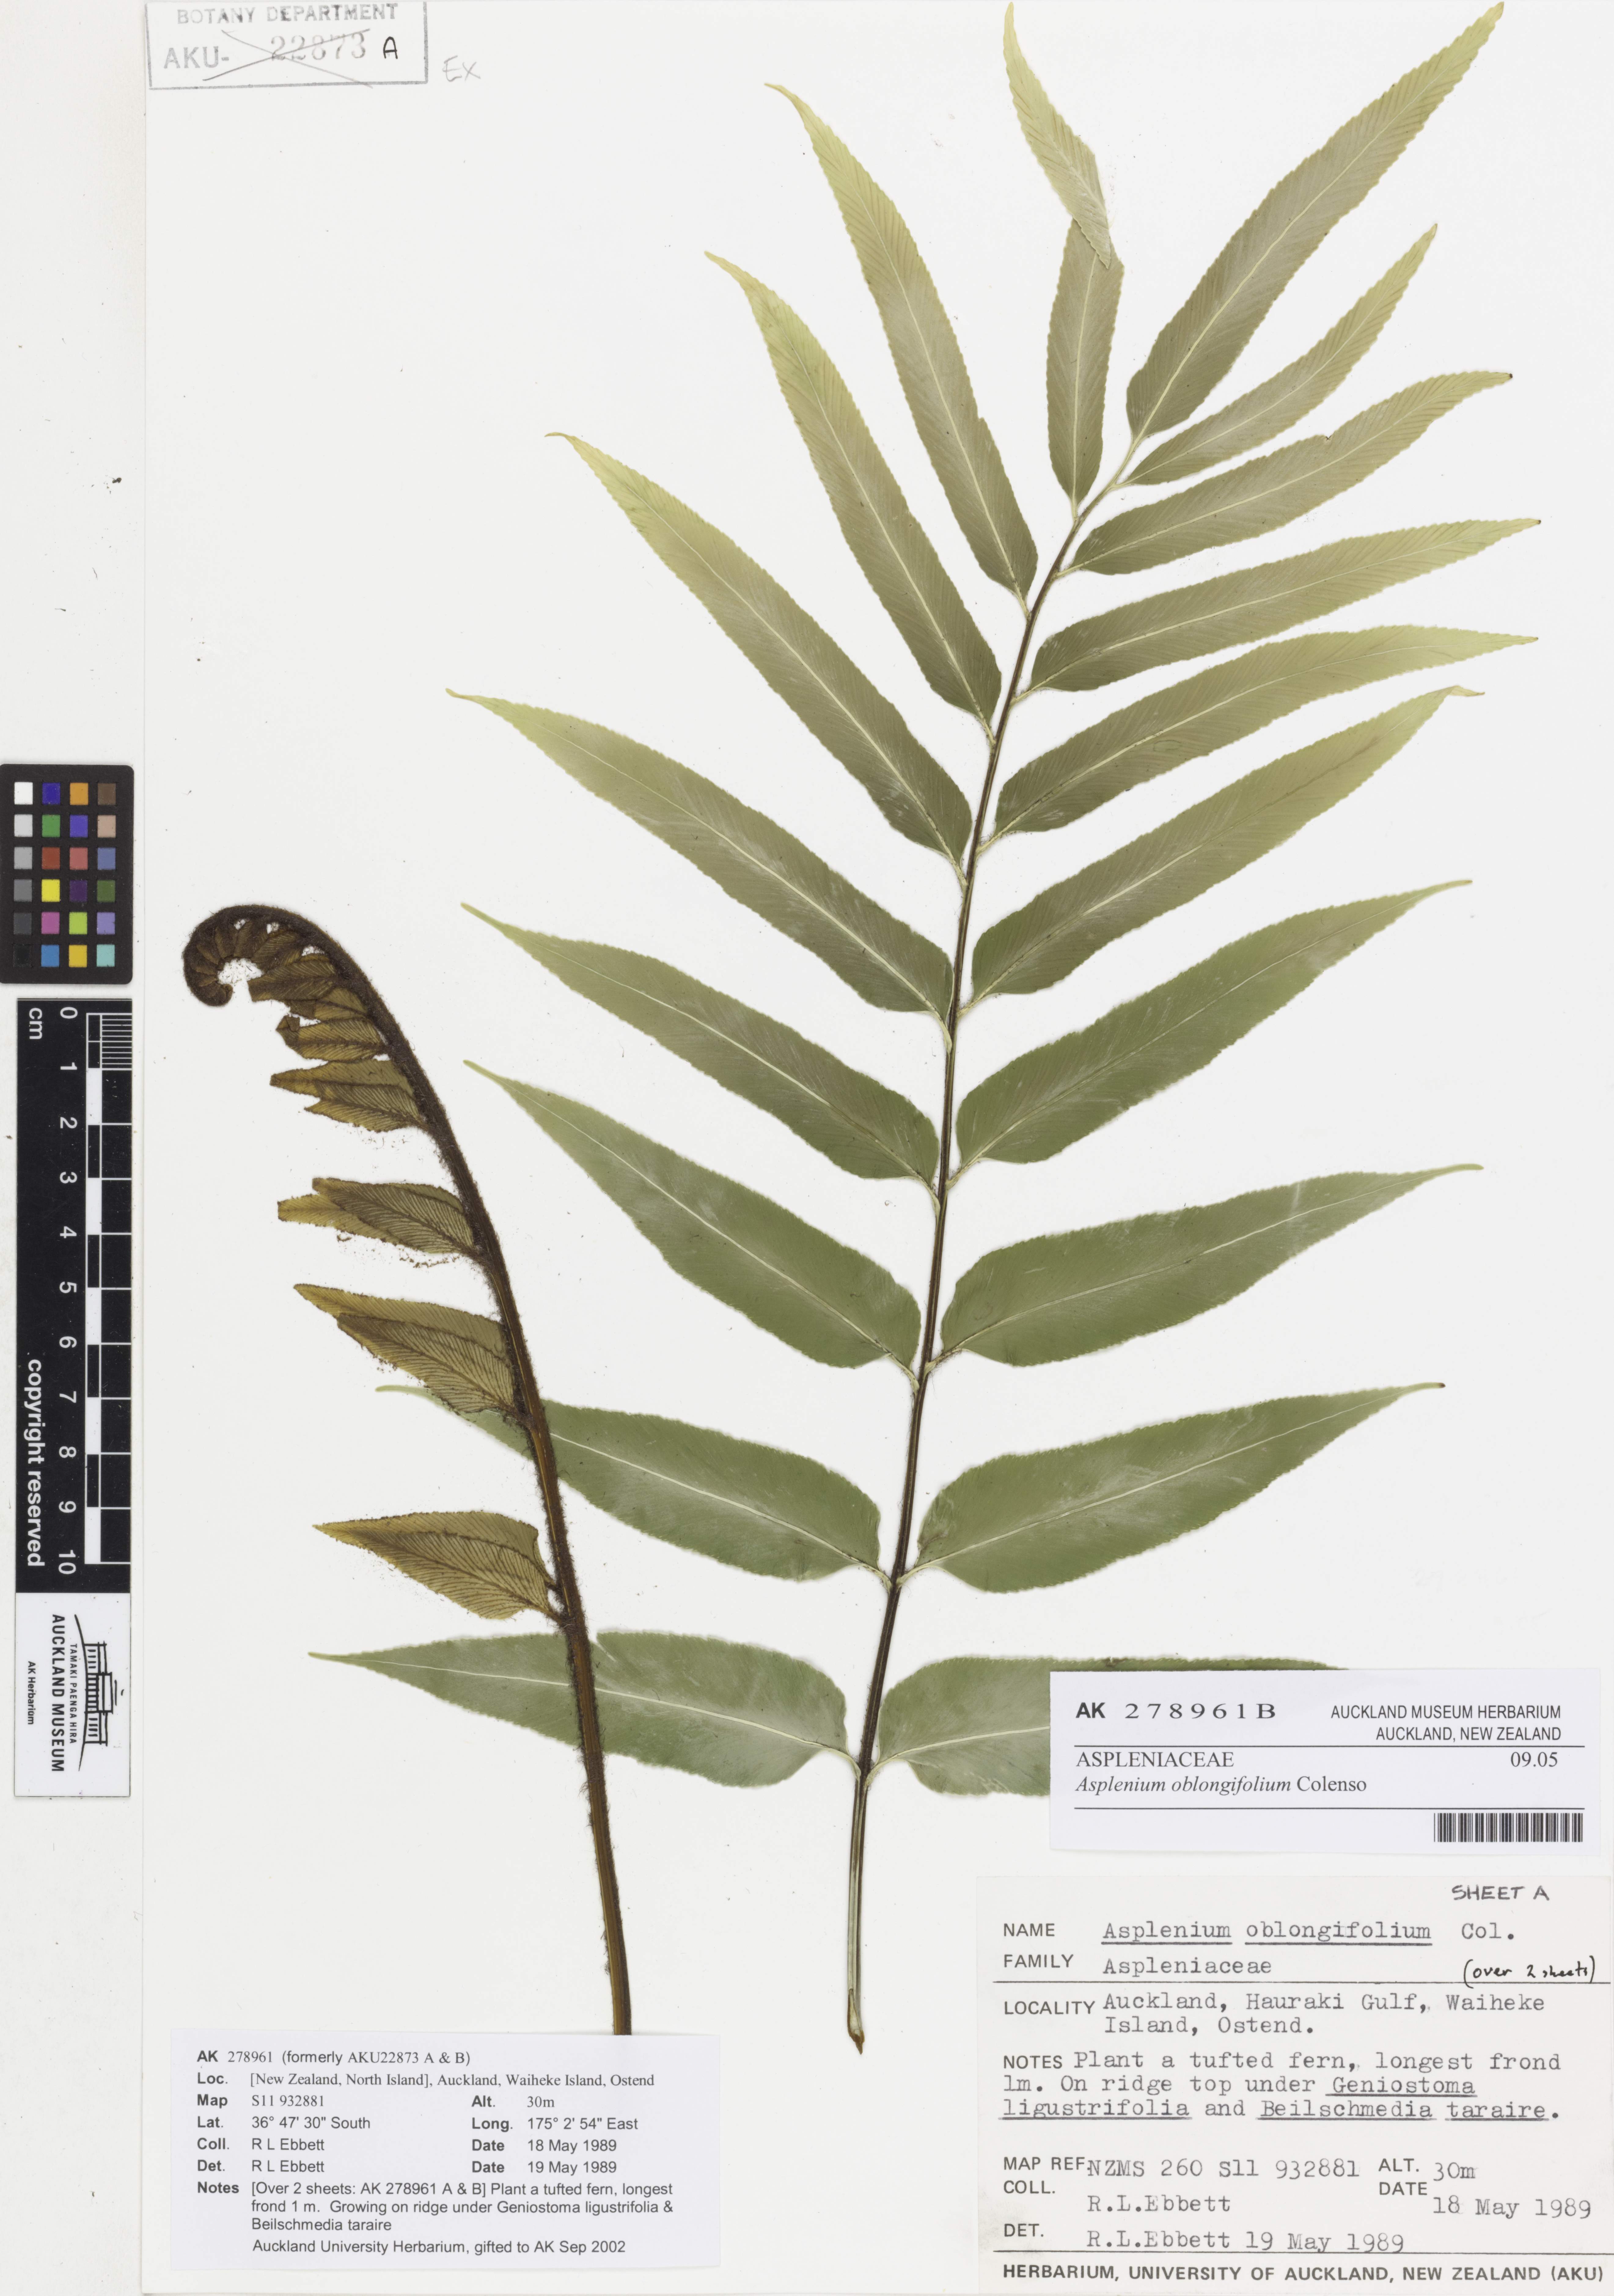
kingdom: Plantae
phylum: Tracheophyta
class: Polypodiopsida
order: Polypodiales
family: Aspleniaceae
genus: Asplenium
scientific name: Asplenium oblongifolium
